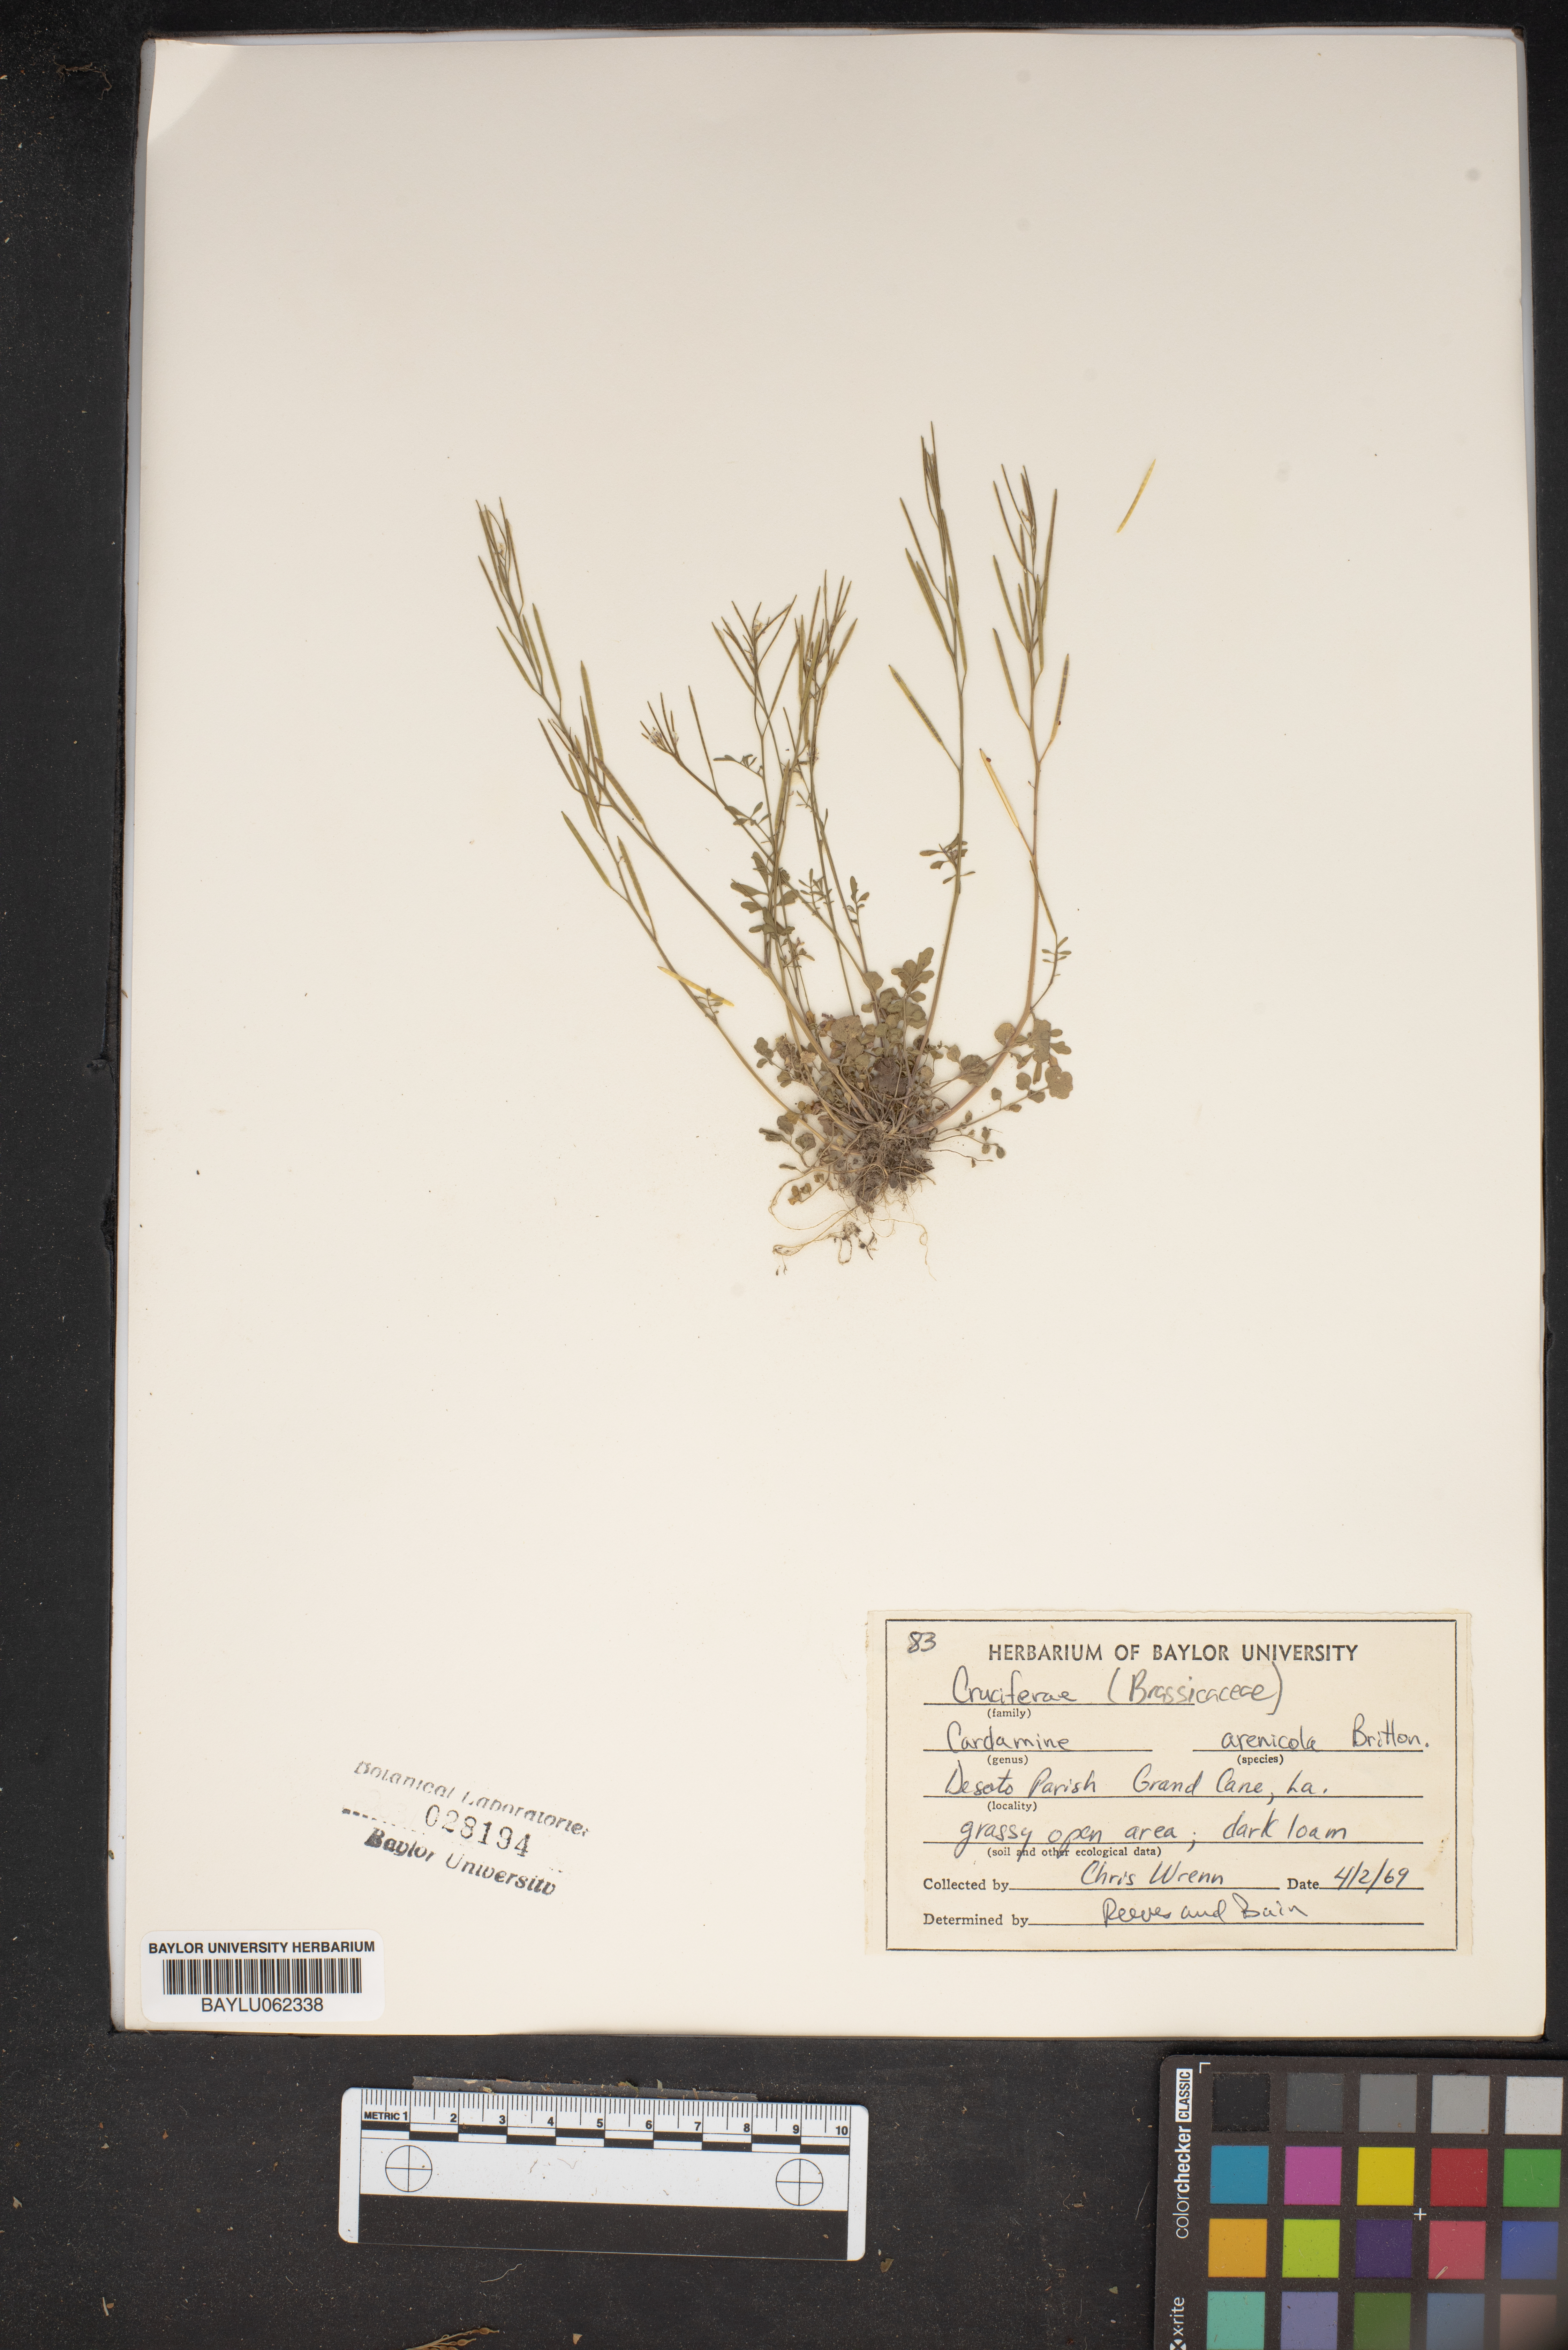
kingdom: Plantae
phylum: Tracheophyta
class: Magnoliopsida
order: Brassicales
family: Brassicaceae
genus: Cardamine
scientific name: Cardamine parviflora
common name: Sand bittercress
